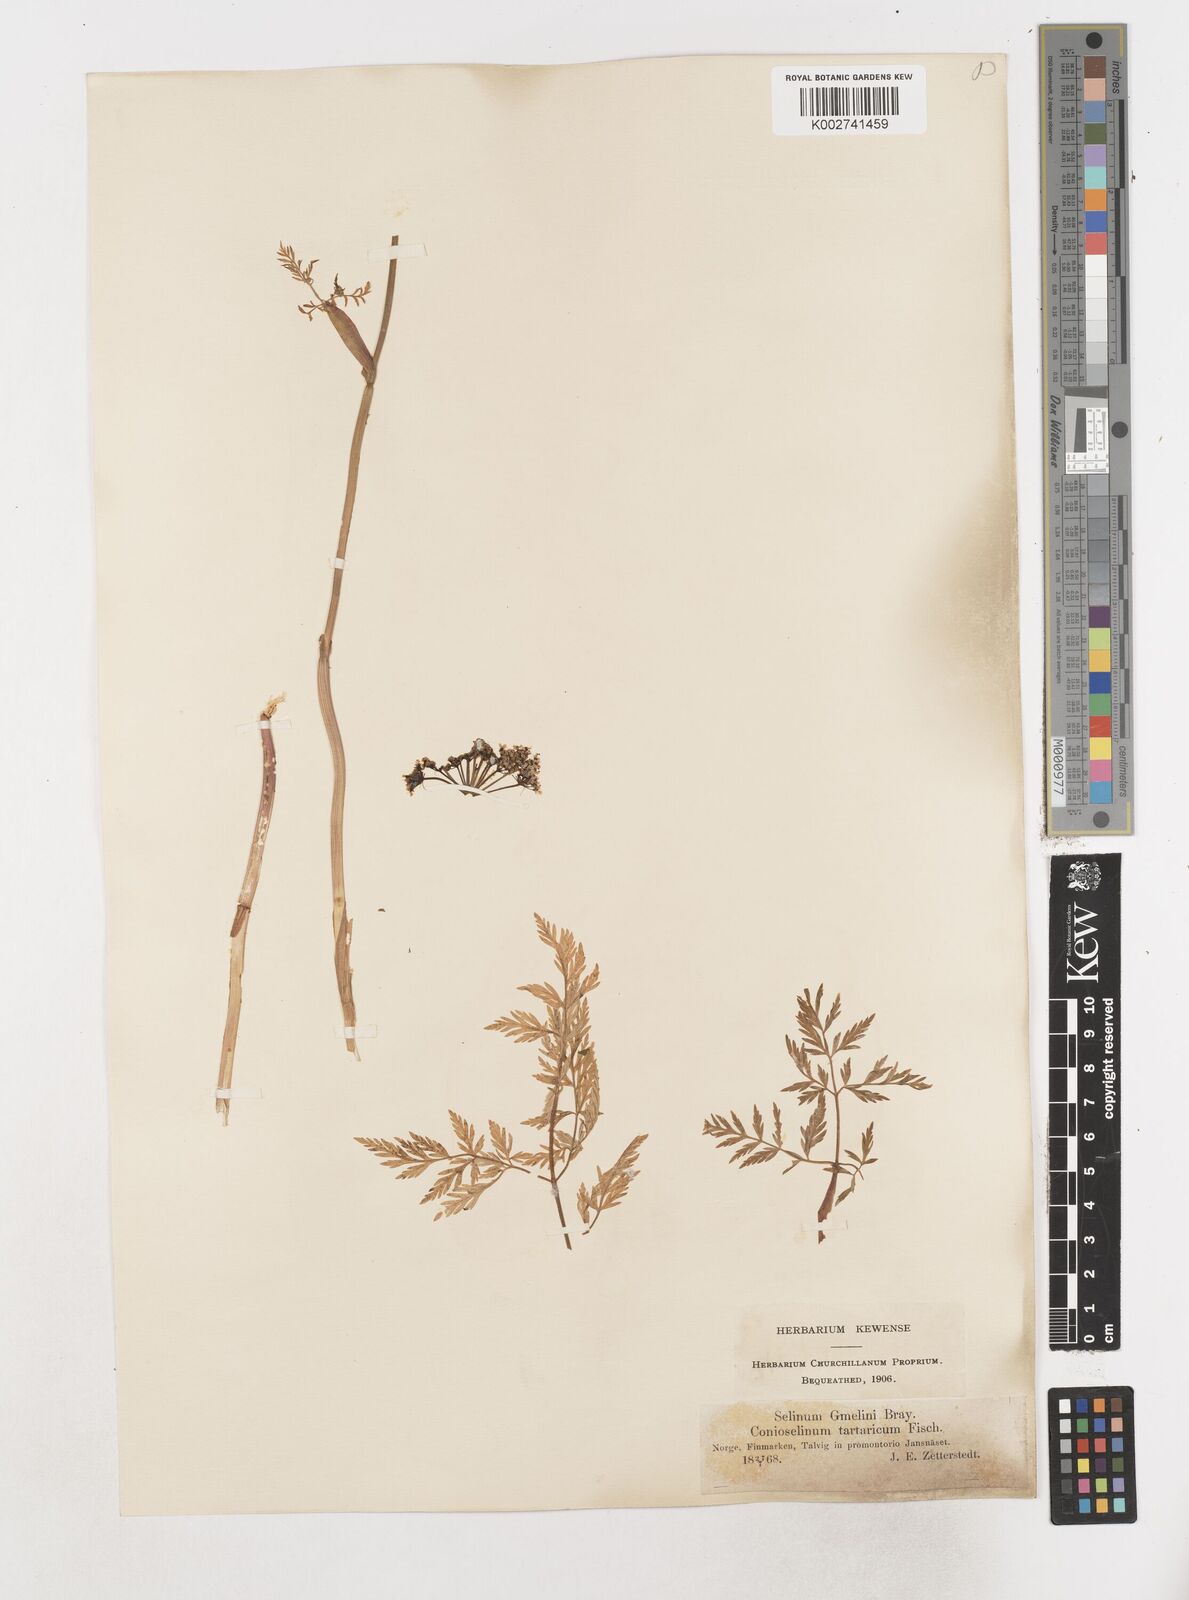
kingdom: Plantae
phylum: Tracheophyta
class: Magnoliopsida
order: Apiales
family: Apiaceae
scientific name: Apiaceae
